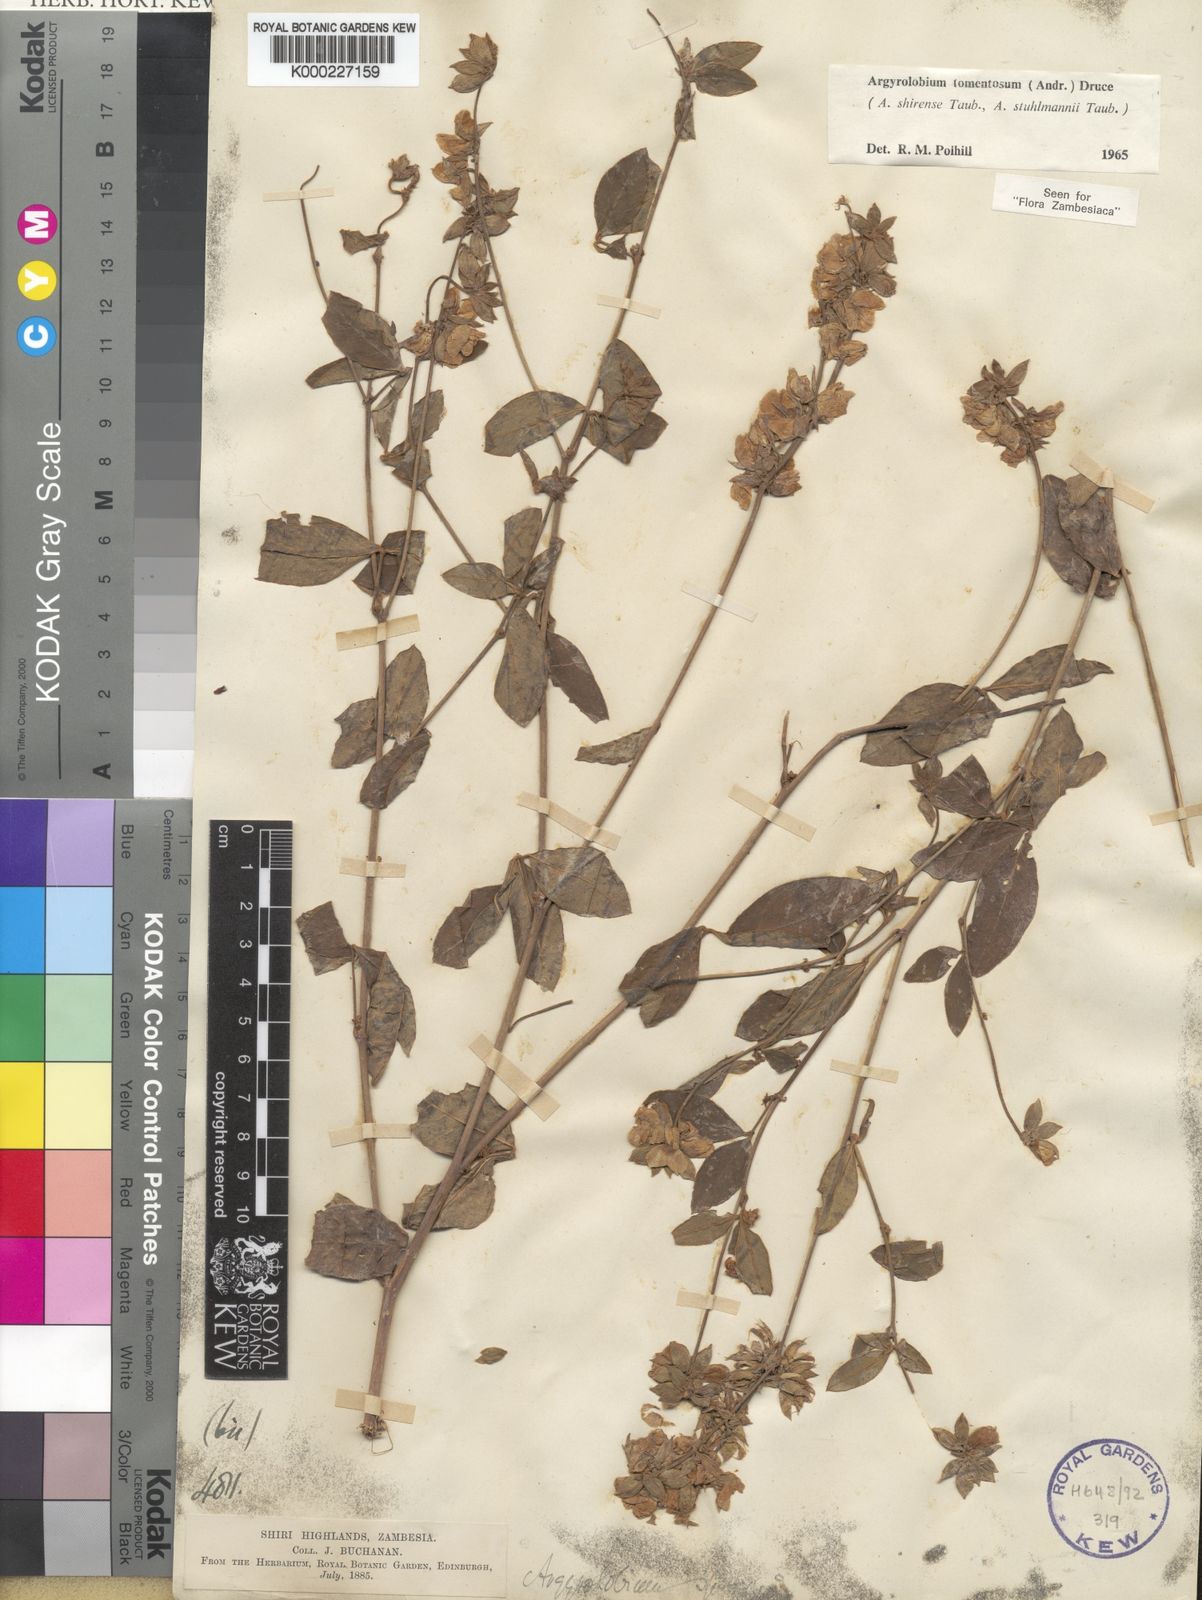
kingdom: Plantae
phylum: Tracheophyta
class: Magnoliopsida
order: Fabales
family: Fabaceae
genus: Argyrolobium
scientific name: Argyrolobium tomentosum
